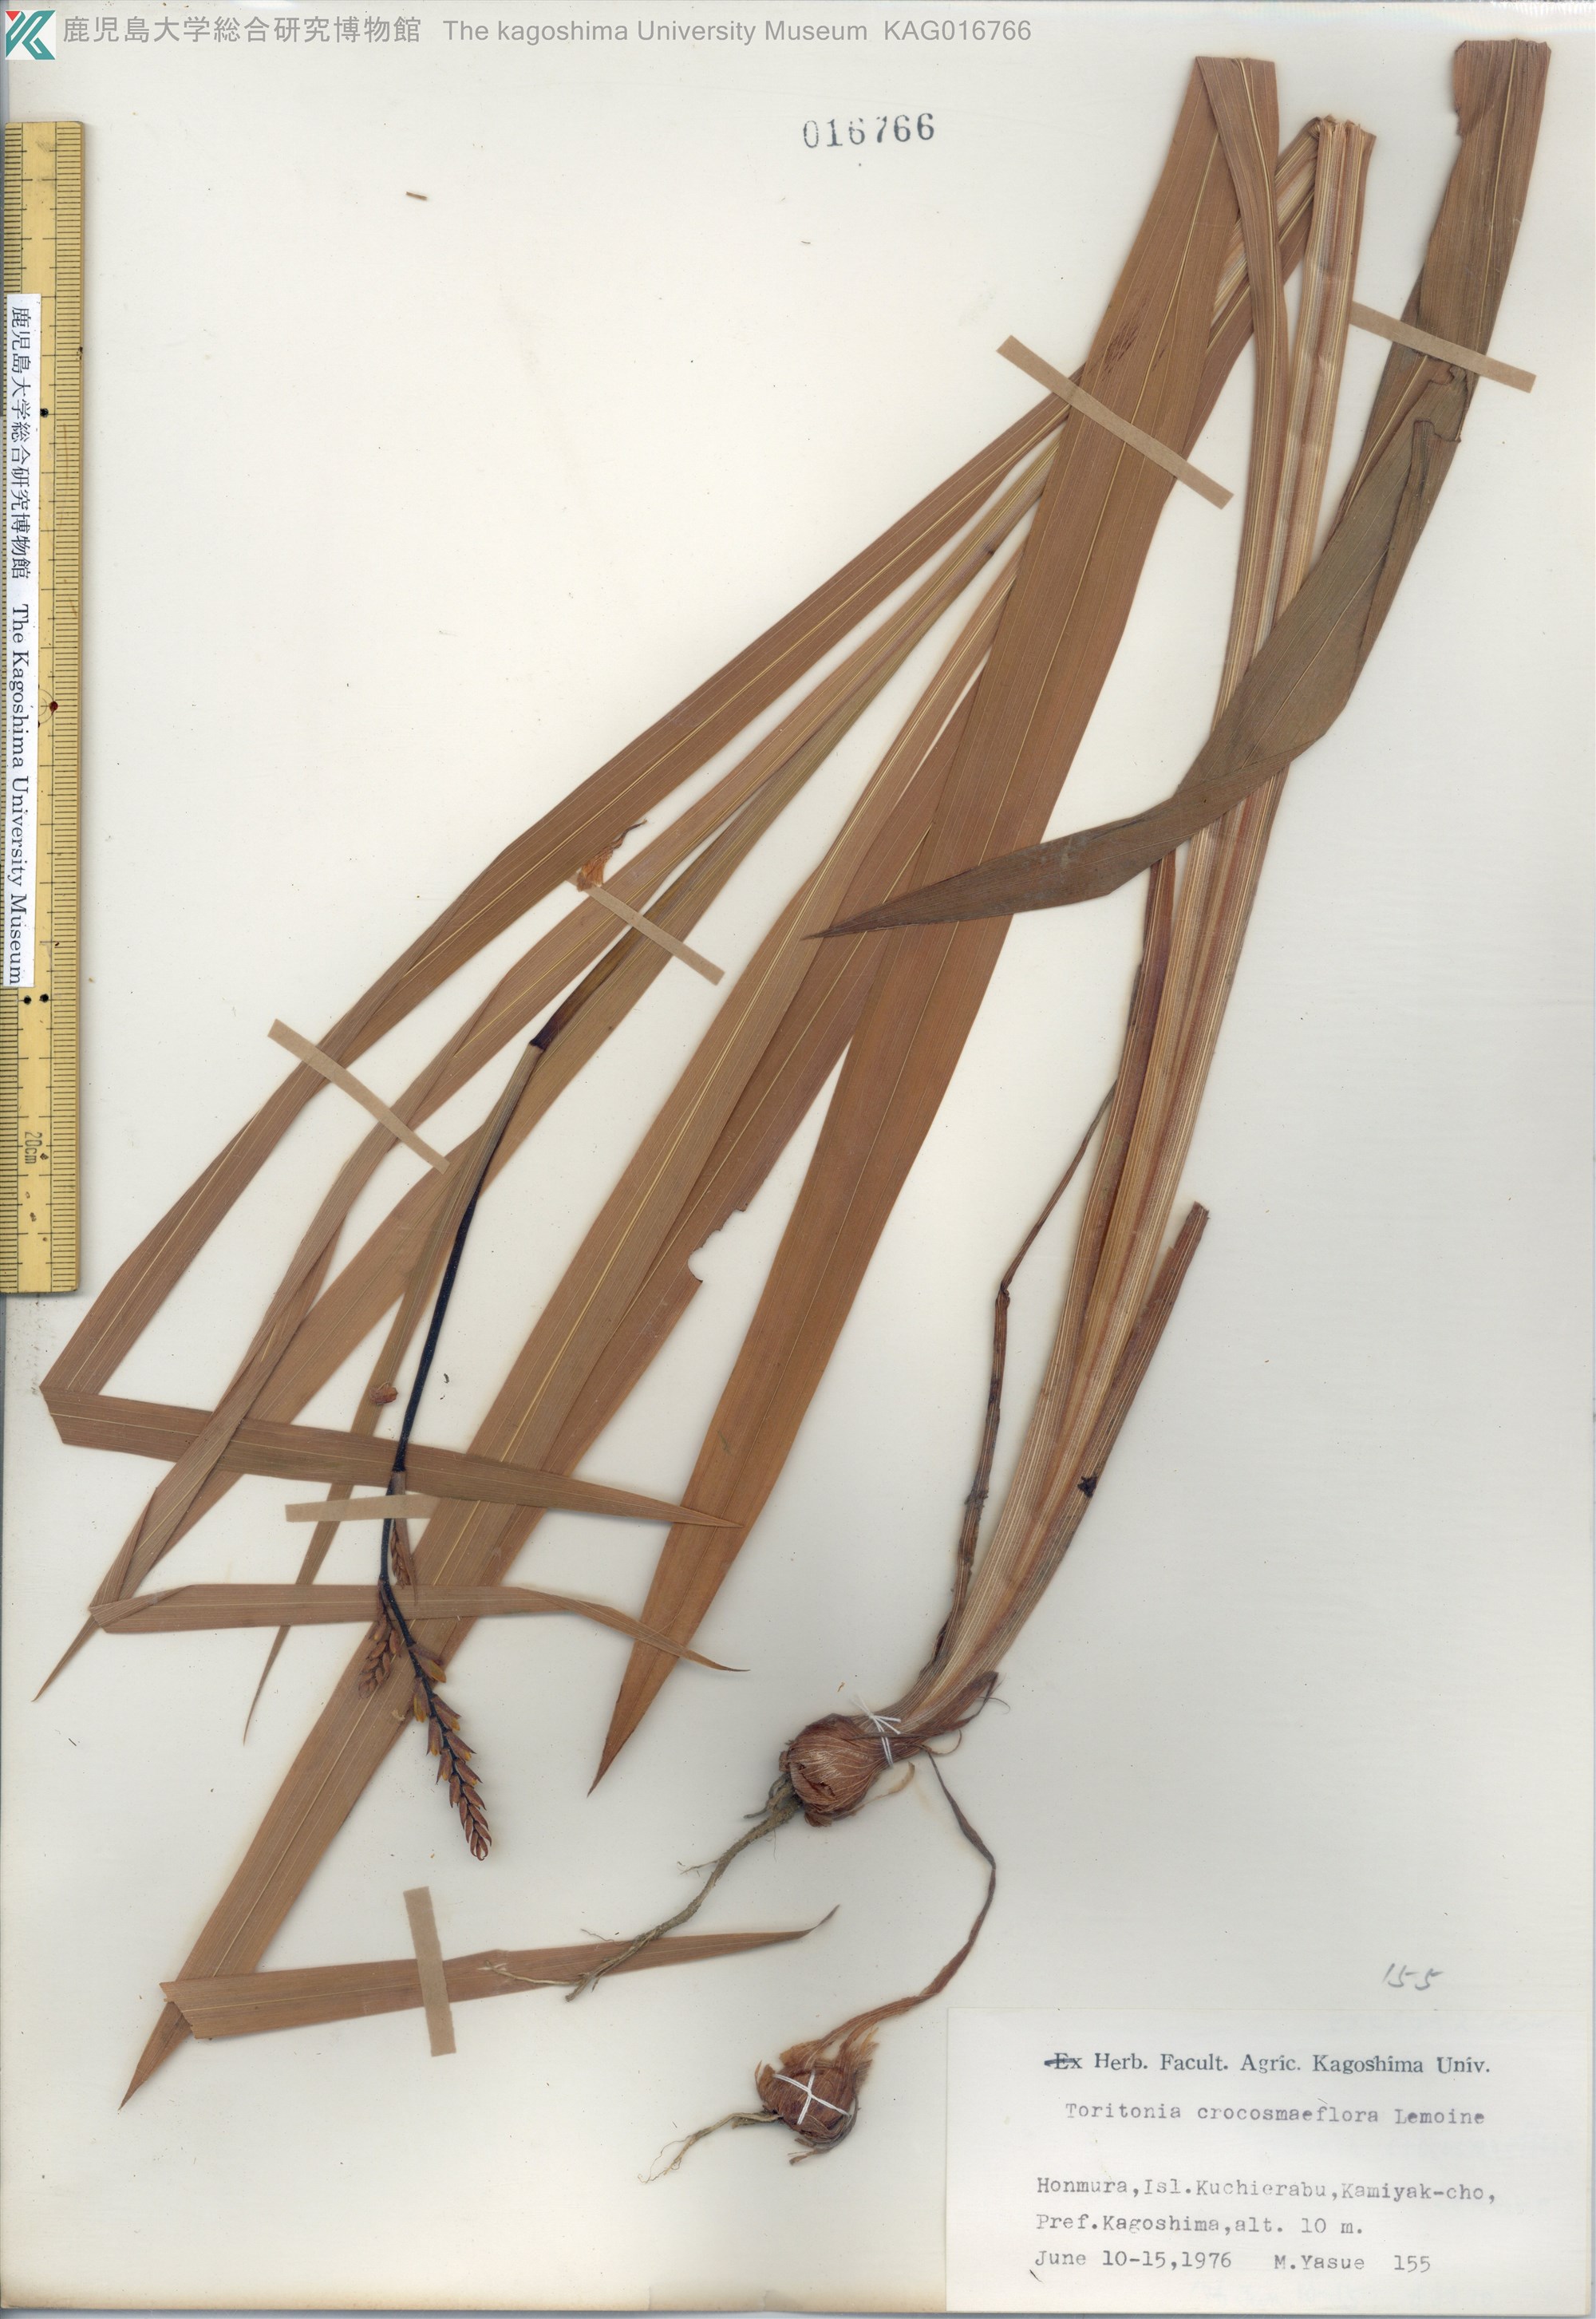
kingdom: Plantae
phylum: Tracheophyta
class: Liliopsida
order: Asparagales
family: Iridaceae
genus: Crocosmia
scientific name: Crocosmia crocosmiiflora
